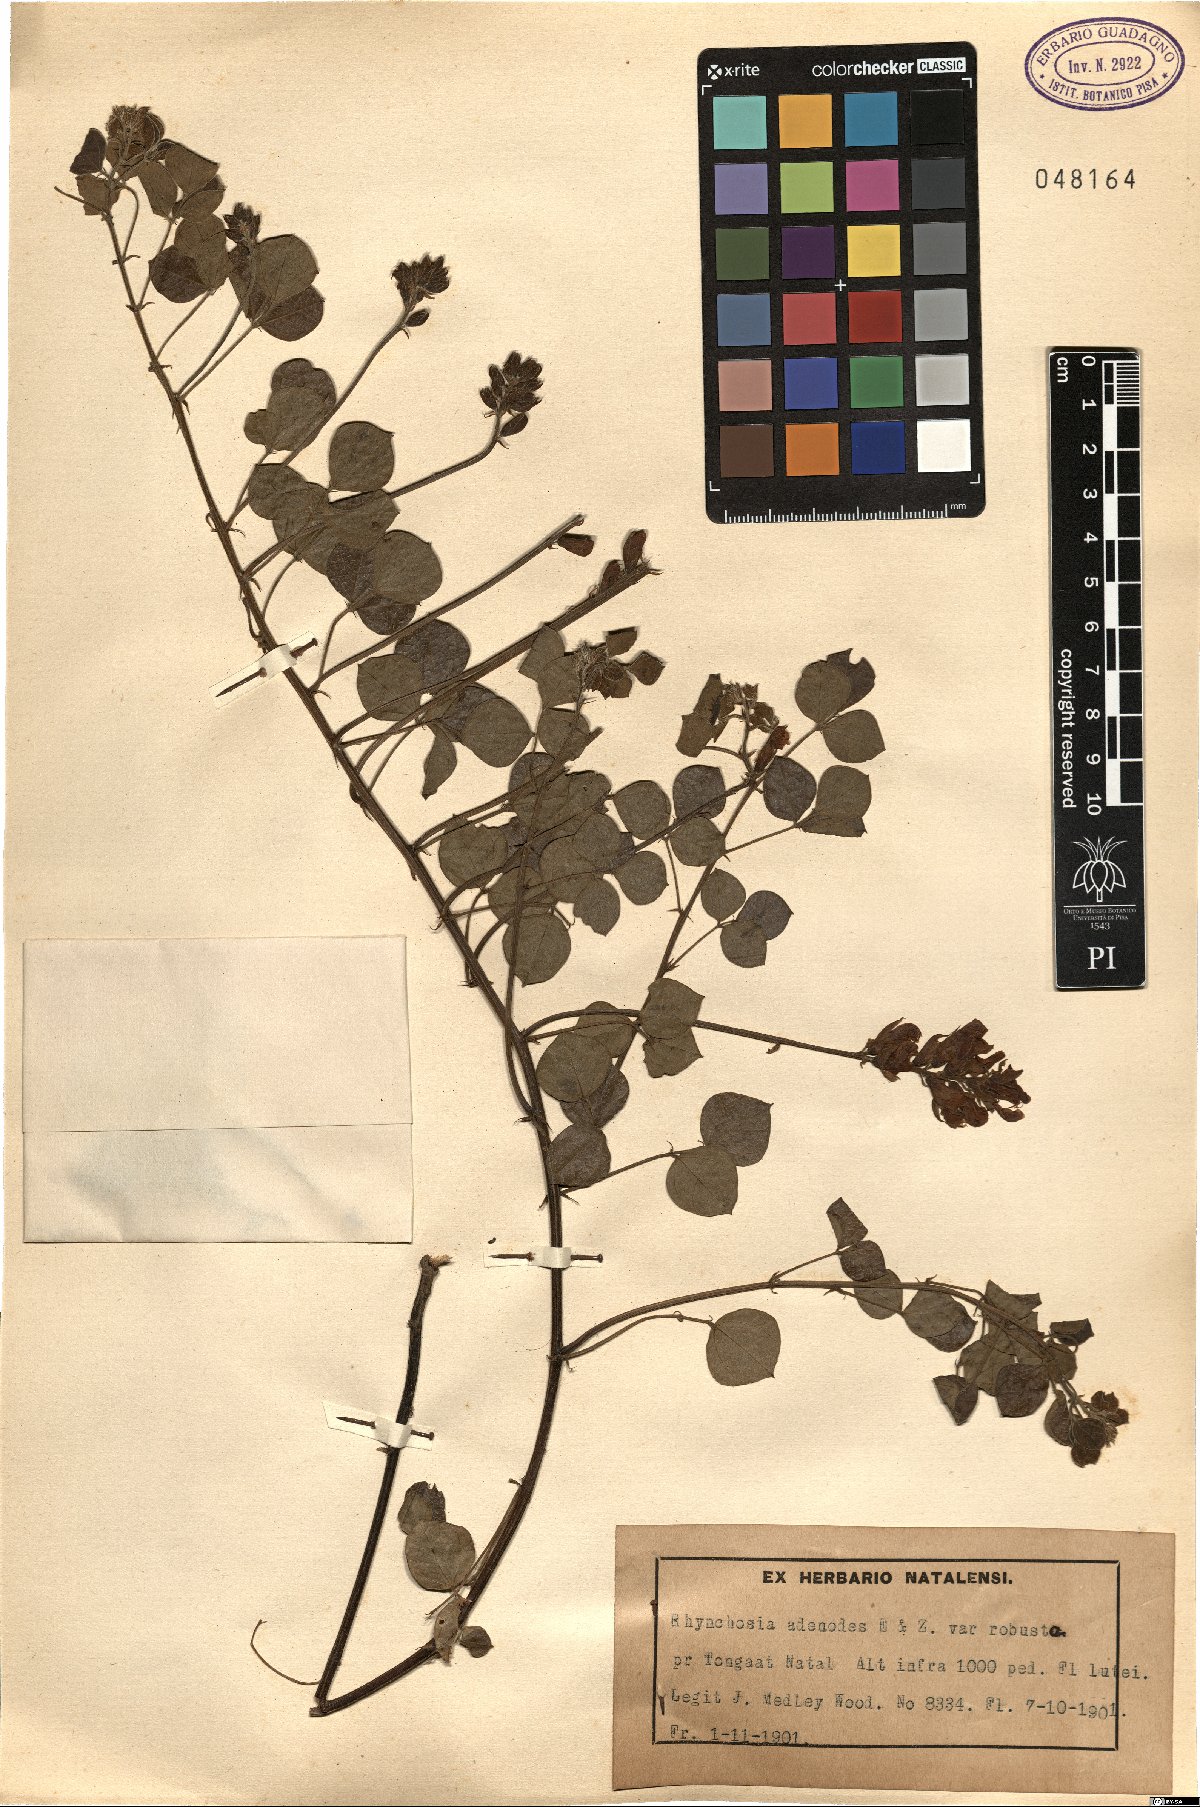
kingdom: Plantae
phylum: Tracheophyta
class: Magnoliopsida
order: Fabales
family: Fabaceae
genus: Rhynchosia
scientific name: Rhynchosia adenodes
